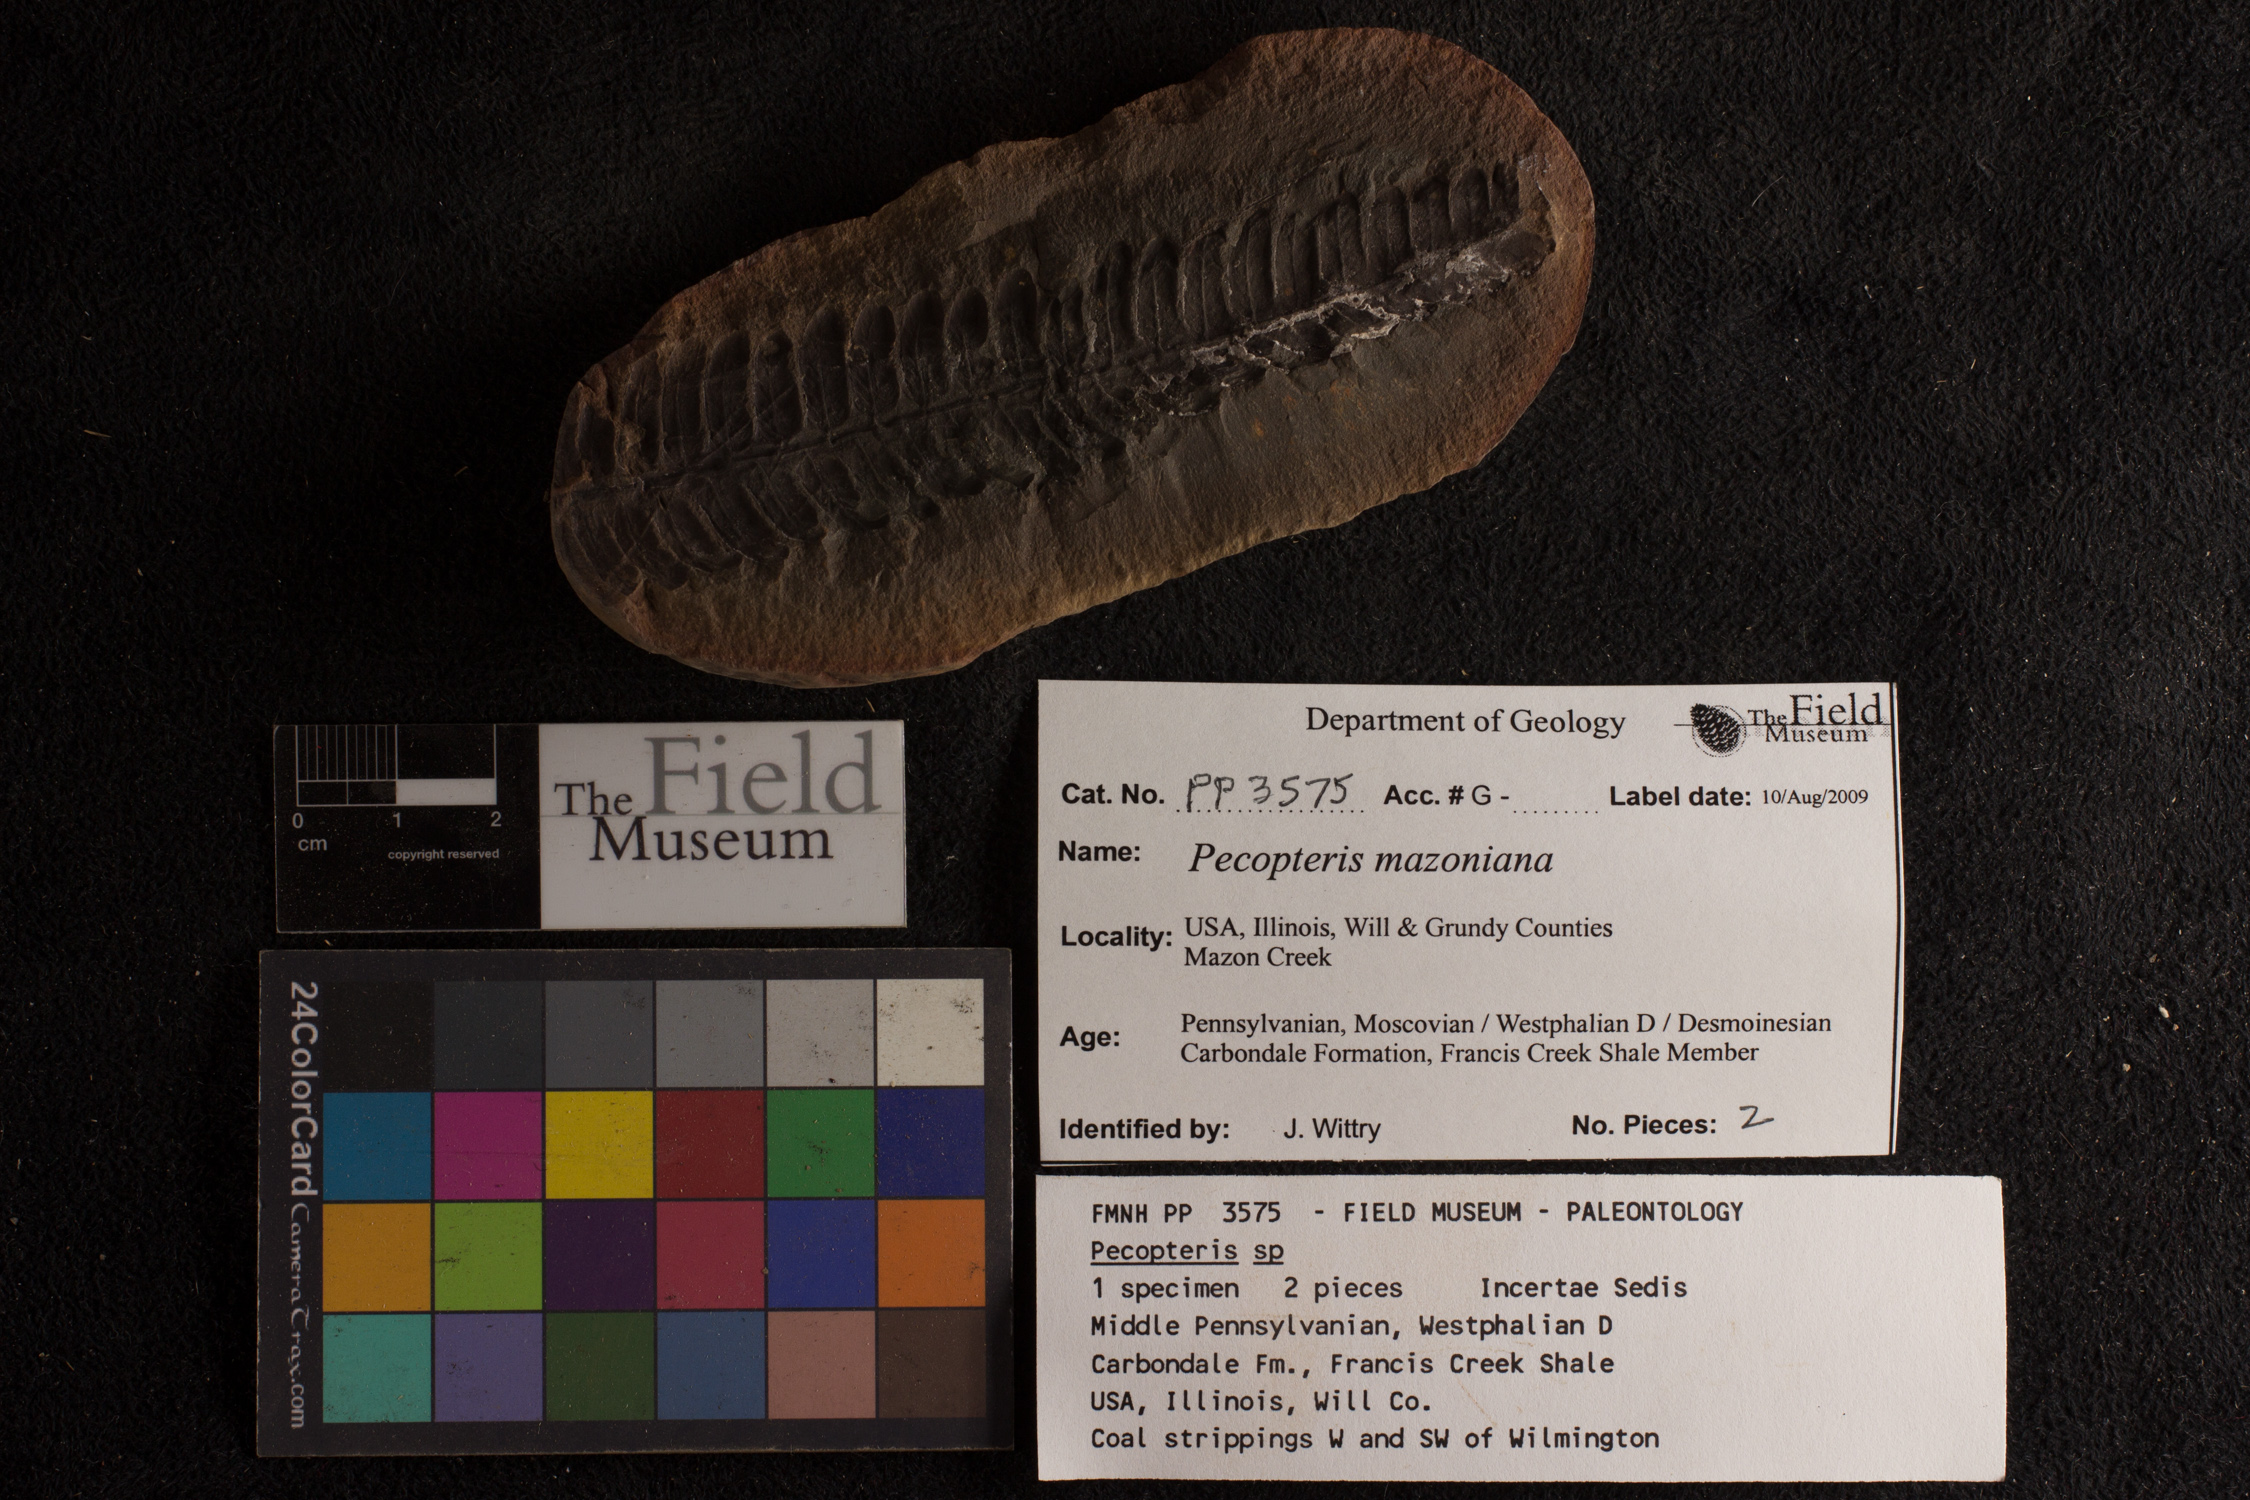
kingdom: Plantae
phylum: Tracheophyta
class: Polypodiopsida
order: Marattiales
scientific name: Marattiales
